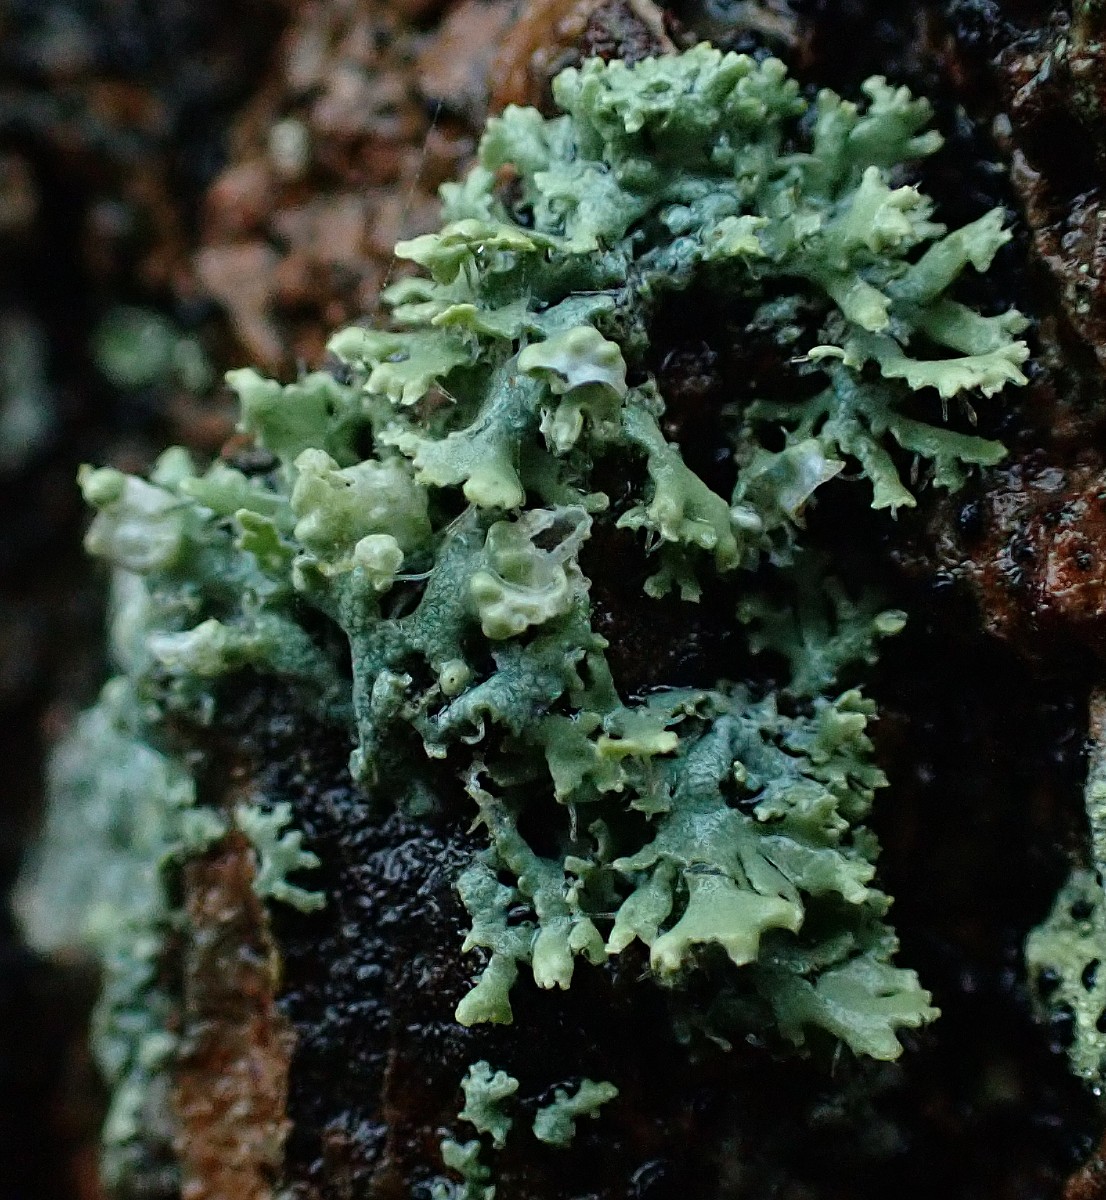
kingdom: Fungi
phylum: Ascomycota
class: Lecanoromycetes
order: Caliciales
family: Physciaceae
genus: Physcia
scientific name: Physcia tenella
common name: spæd rosetlav
